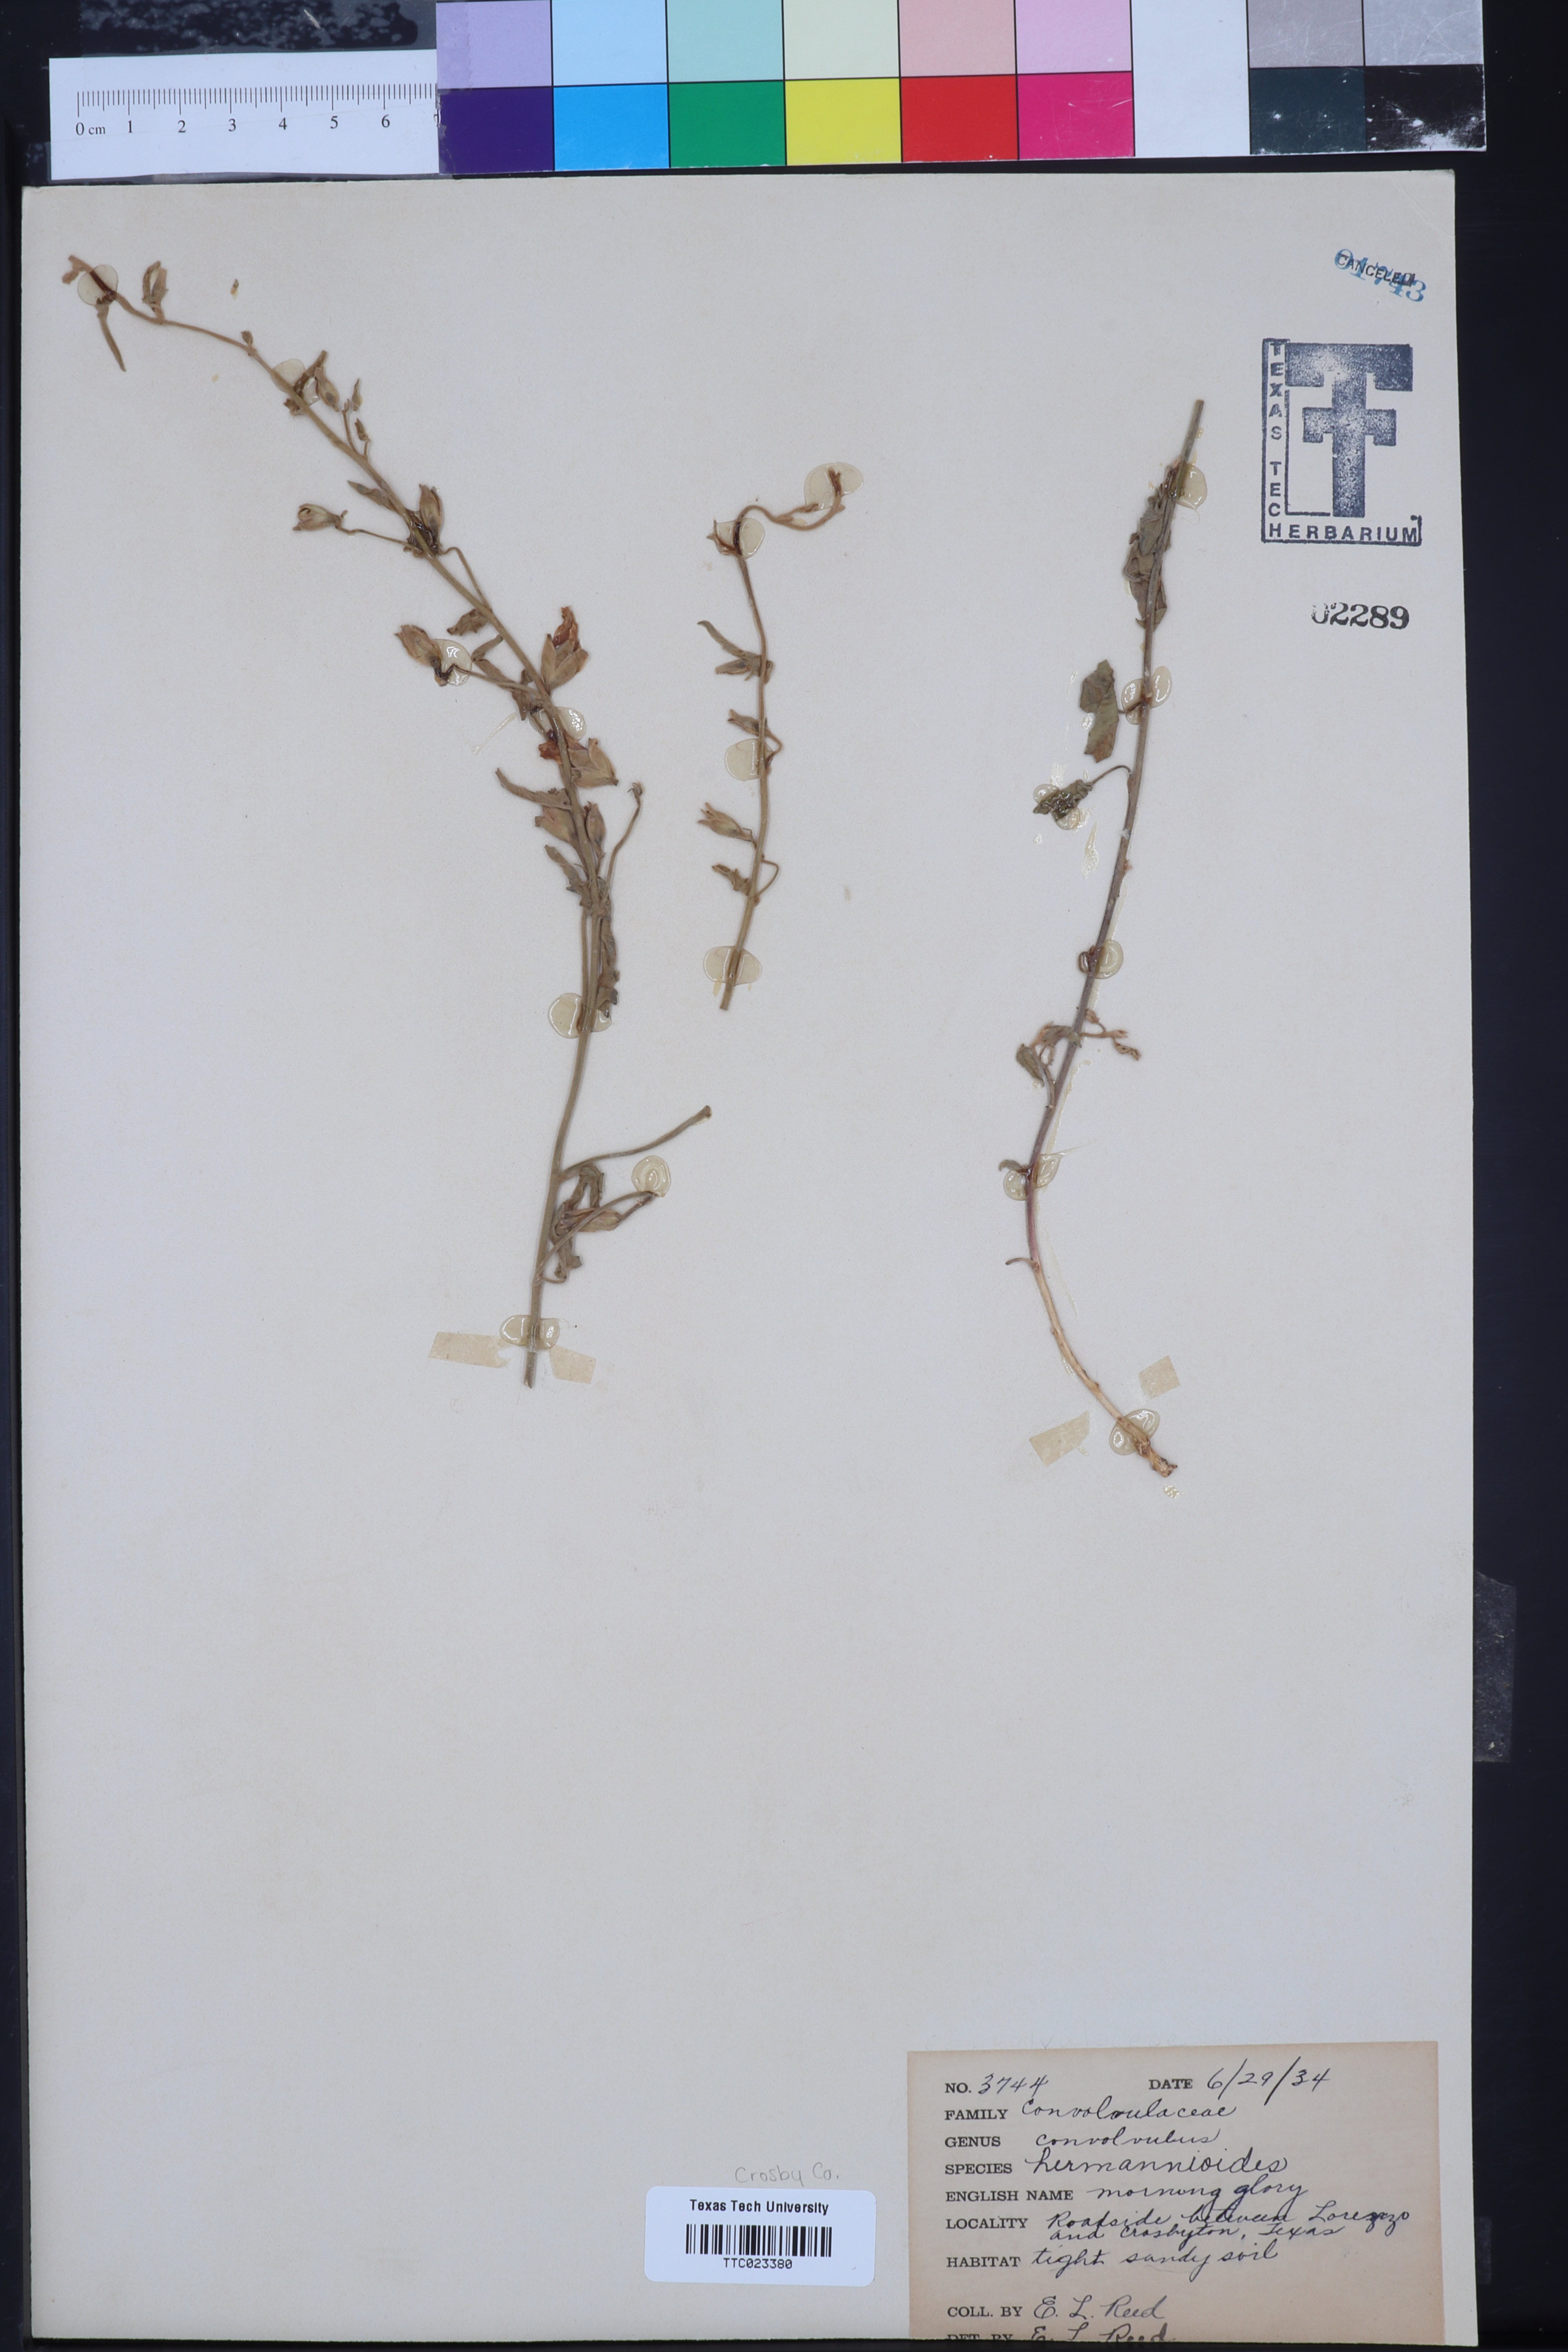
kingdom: Plantae
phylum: Tracheophyta
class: Magnoliopsida
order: Solanales
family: Convolvulaceae
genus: Convolvulus
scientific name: Convolvulus equitans
